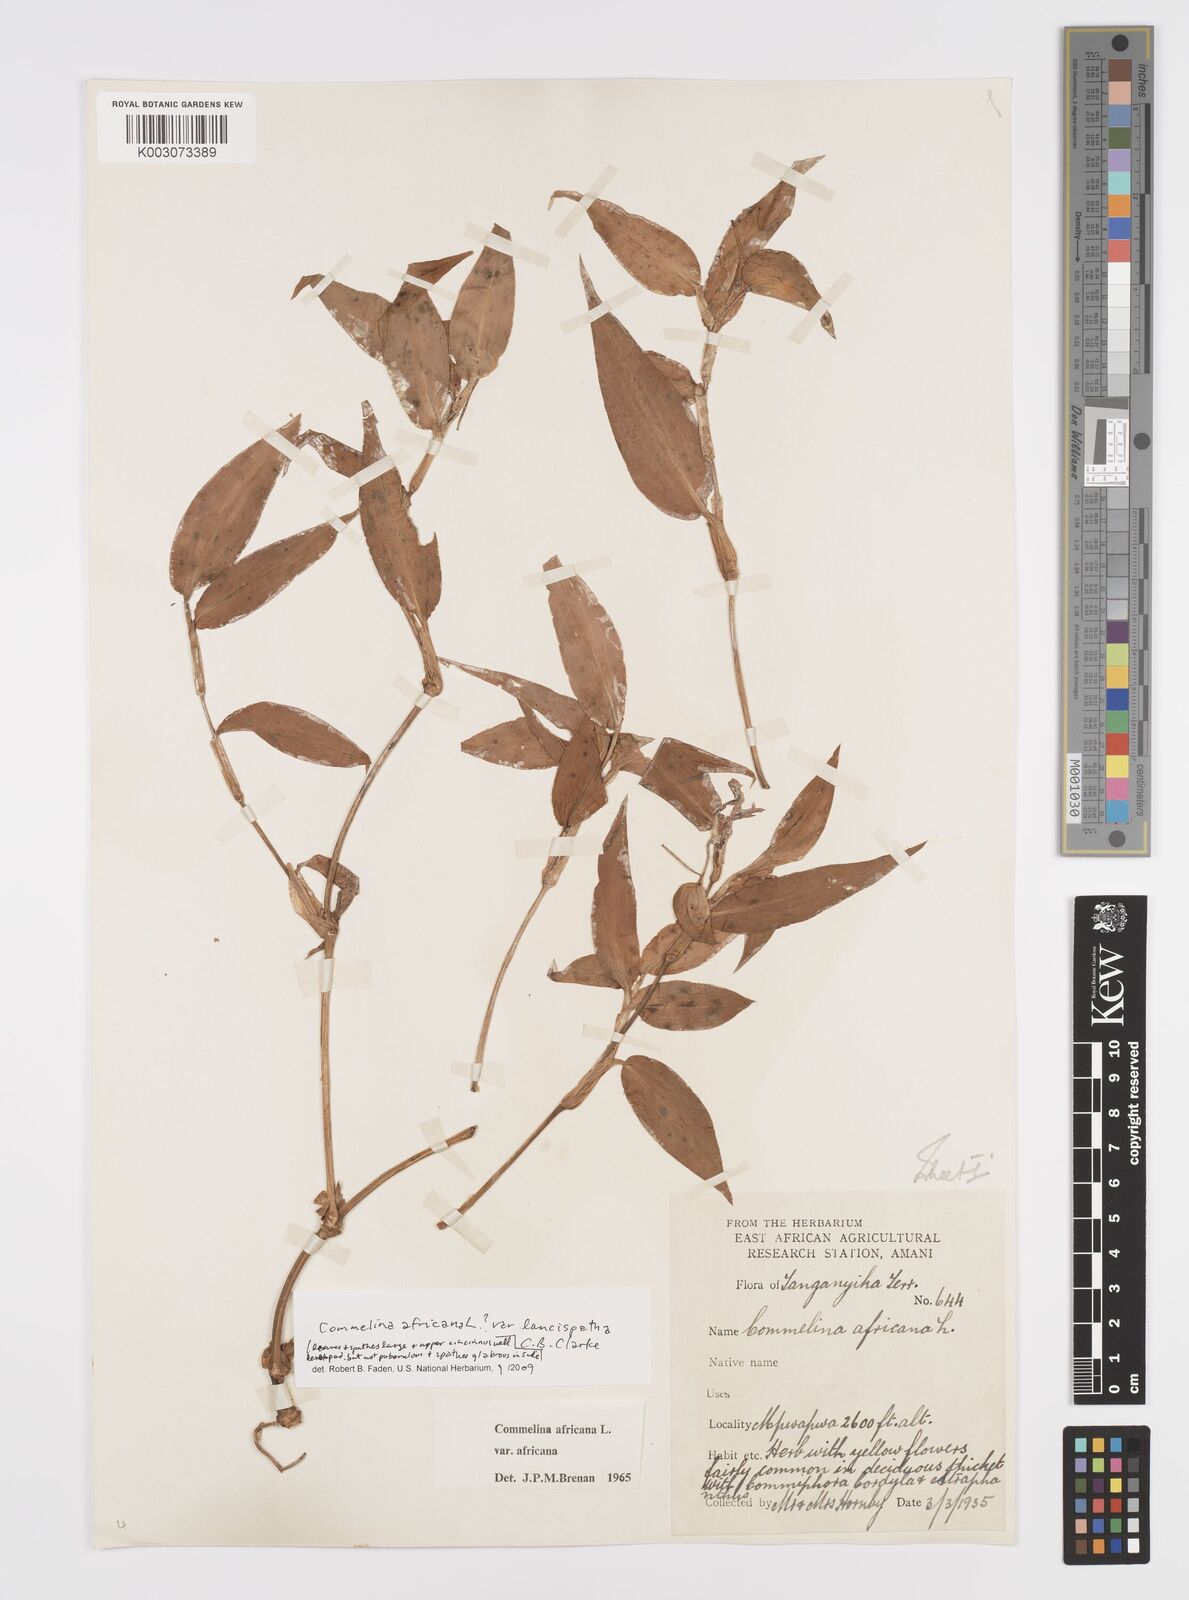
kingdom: Plantae
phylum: Tracheophyta
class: Liliopsida
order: Commelinales
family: Commelinaceae
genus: Commelina
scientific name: Commelina africana
